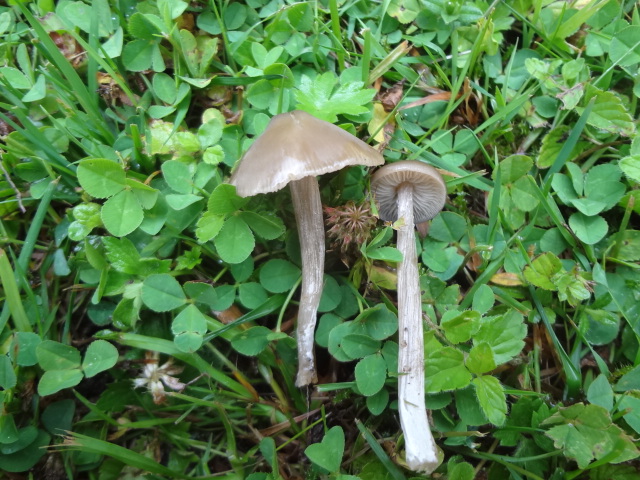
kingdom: Fungi
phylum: Basidiomycota
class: Agaricomycetes
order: Agaricales
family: Entolomataceae
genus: Entoloma
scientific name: Entoloma lucidum
